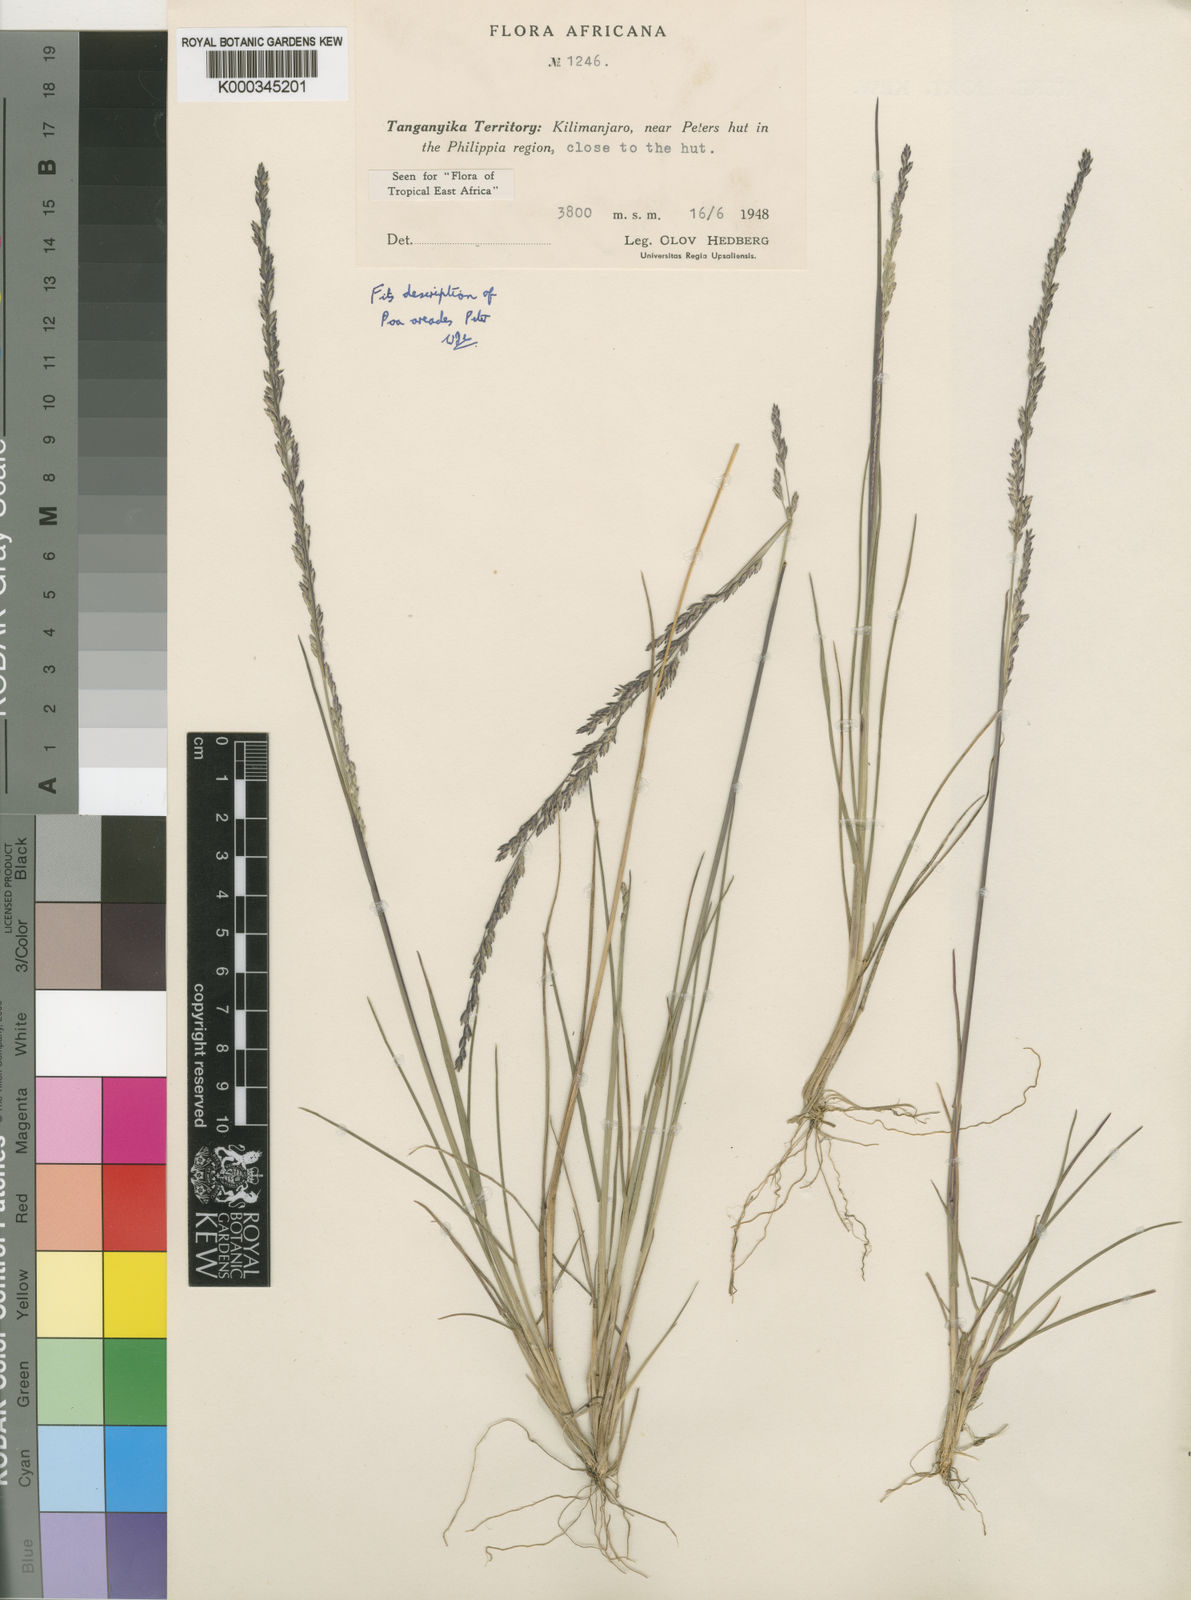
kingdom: Plantae
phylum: Tracheophyta
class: Liliopsida
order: Poales
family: Poaceae
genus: Poa
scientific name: Poa leptoclada
